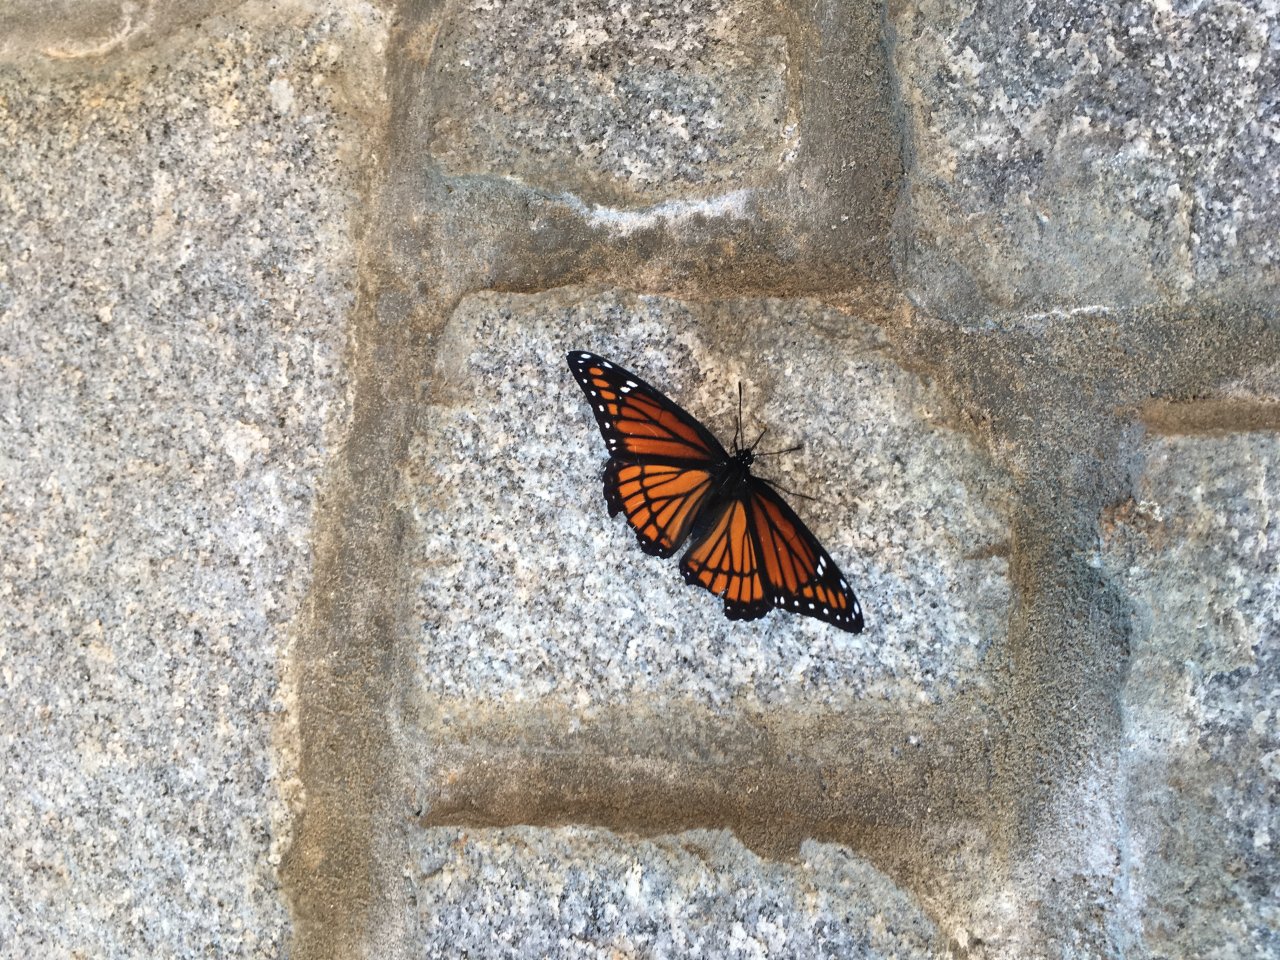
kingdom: Animalia
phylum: Arthropoda
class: Insecta
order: Lepidoptera
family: Nymphalidae
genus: Limenitis
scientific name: Limenitis archippus
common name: Viceroy
